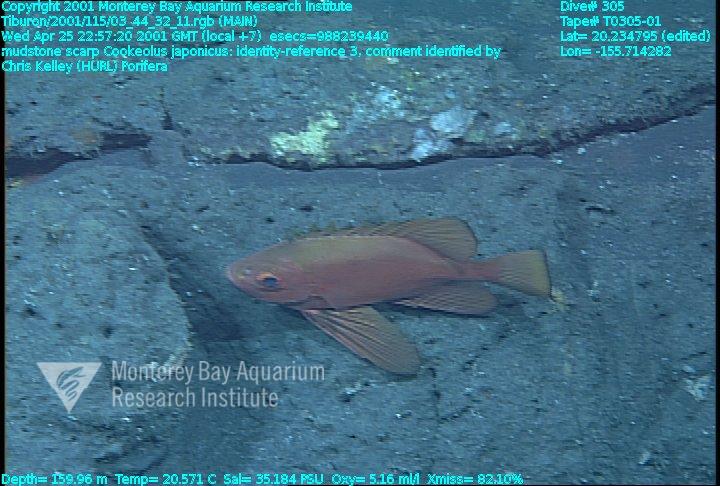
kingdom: Animalia
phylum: Porifera
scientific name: Porifera
